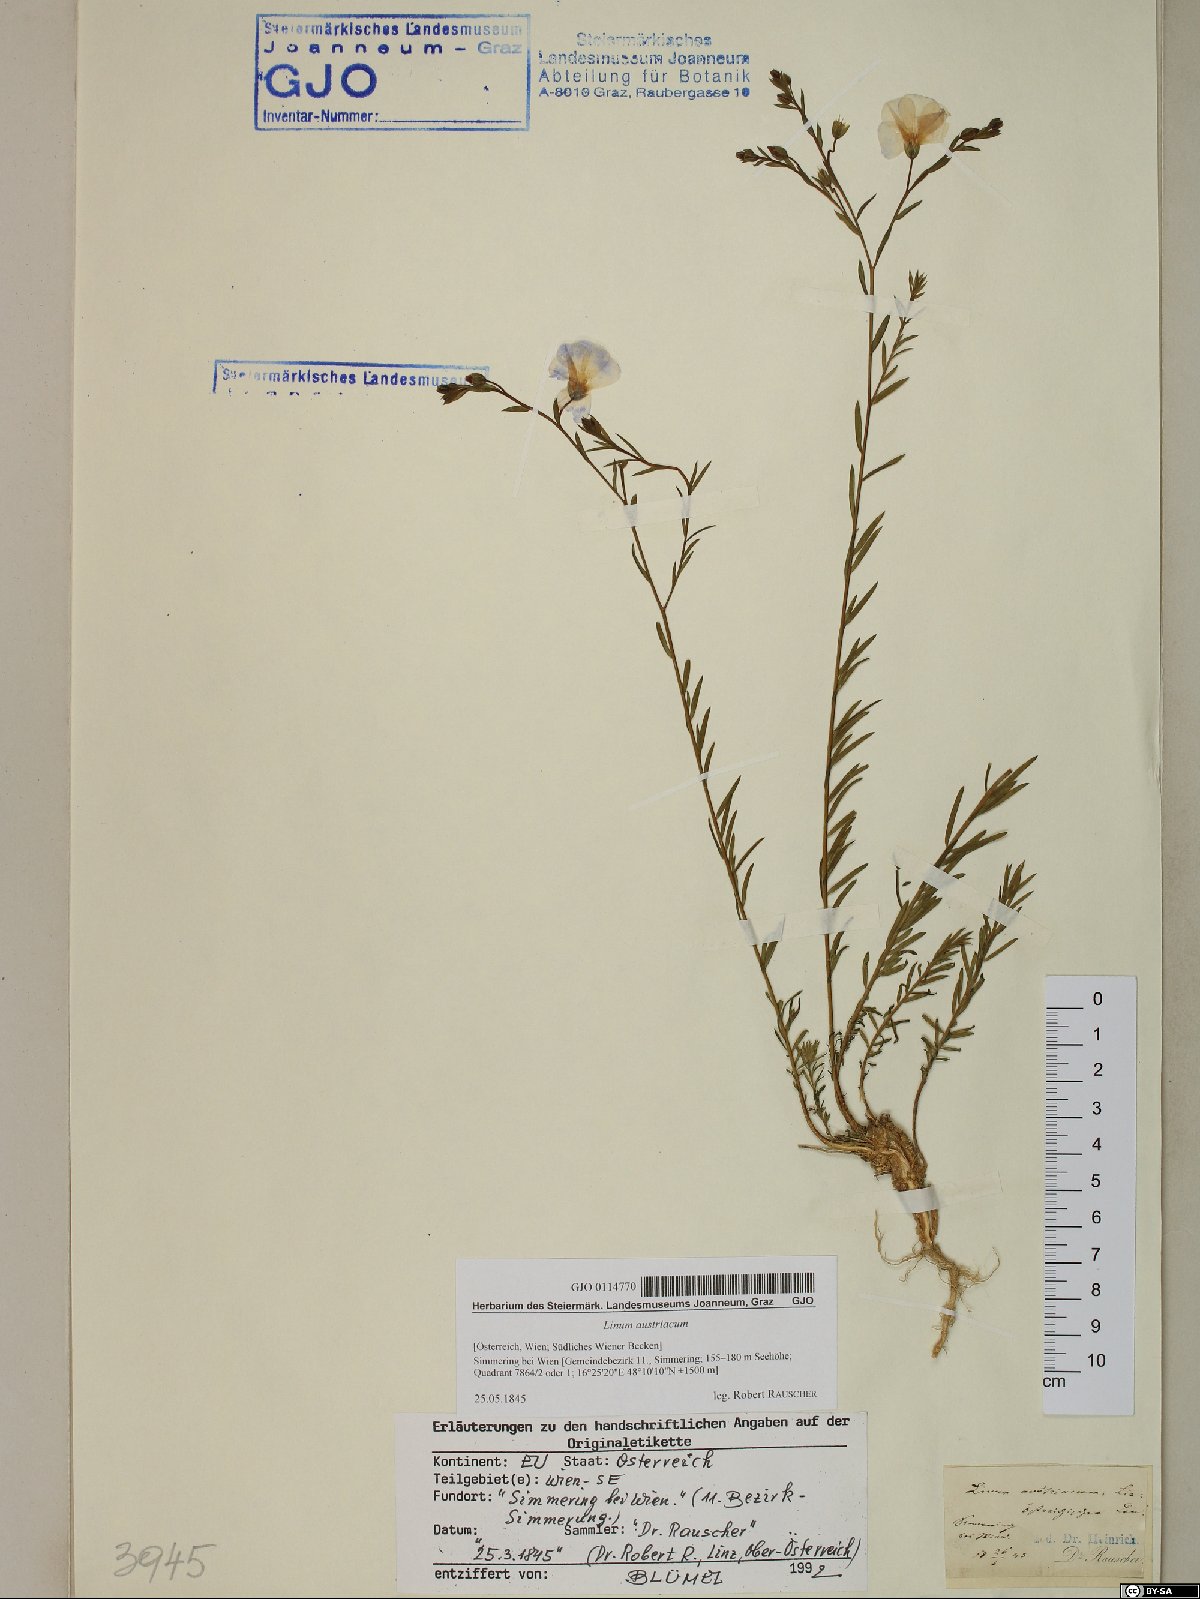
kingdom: Plantae
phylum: Tracheophyta
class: Magnoliopsida
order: Malpighiales
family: Linaceae
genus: Linum
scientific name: Linum austriacum
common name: Austrian flax
